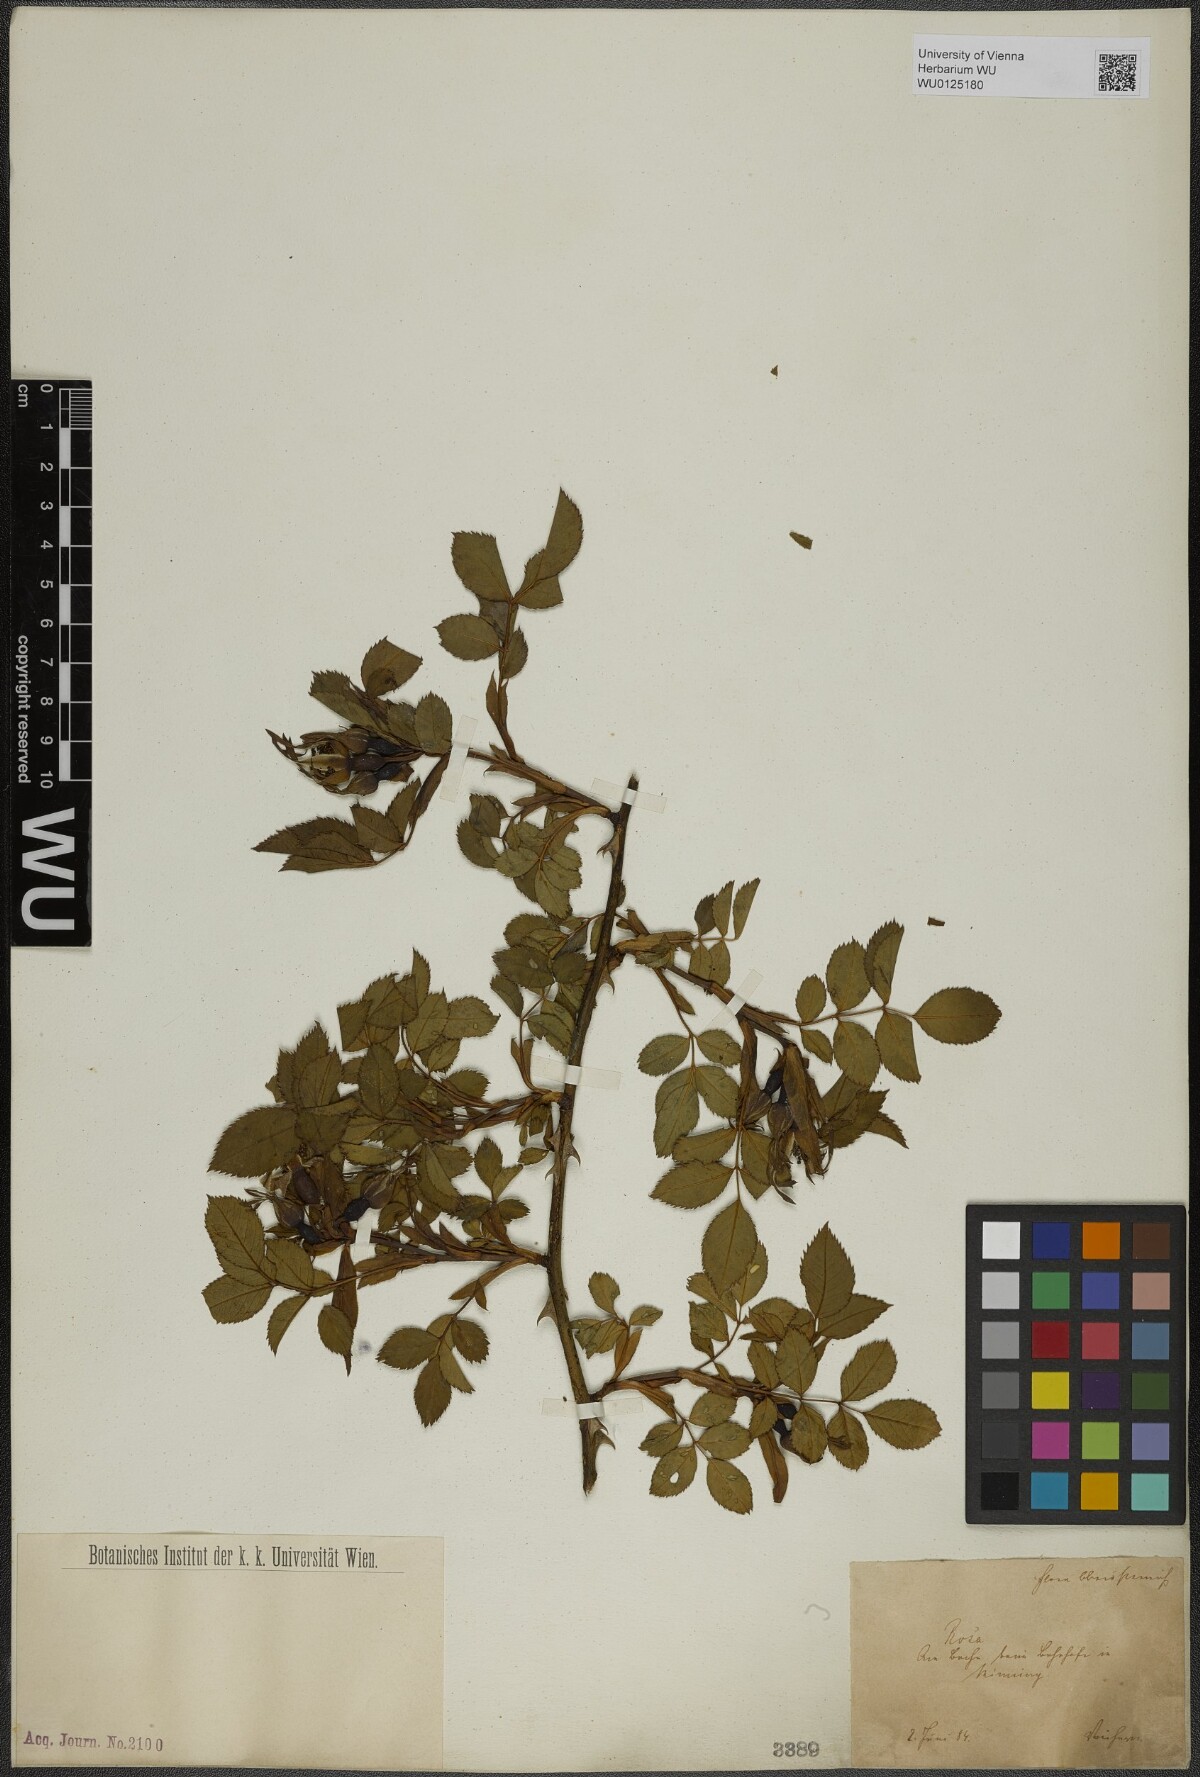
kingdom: Plantae
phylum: Tracheophyta
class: Magnoliopsida
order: Rosales
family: Rosaceae
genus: Rosa
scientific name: Rosa
